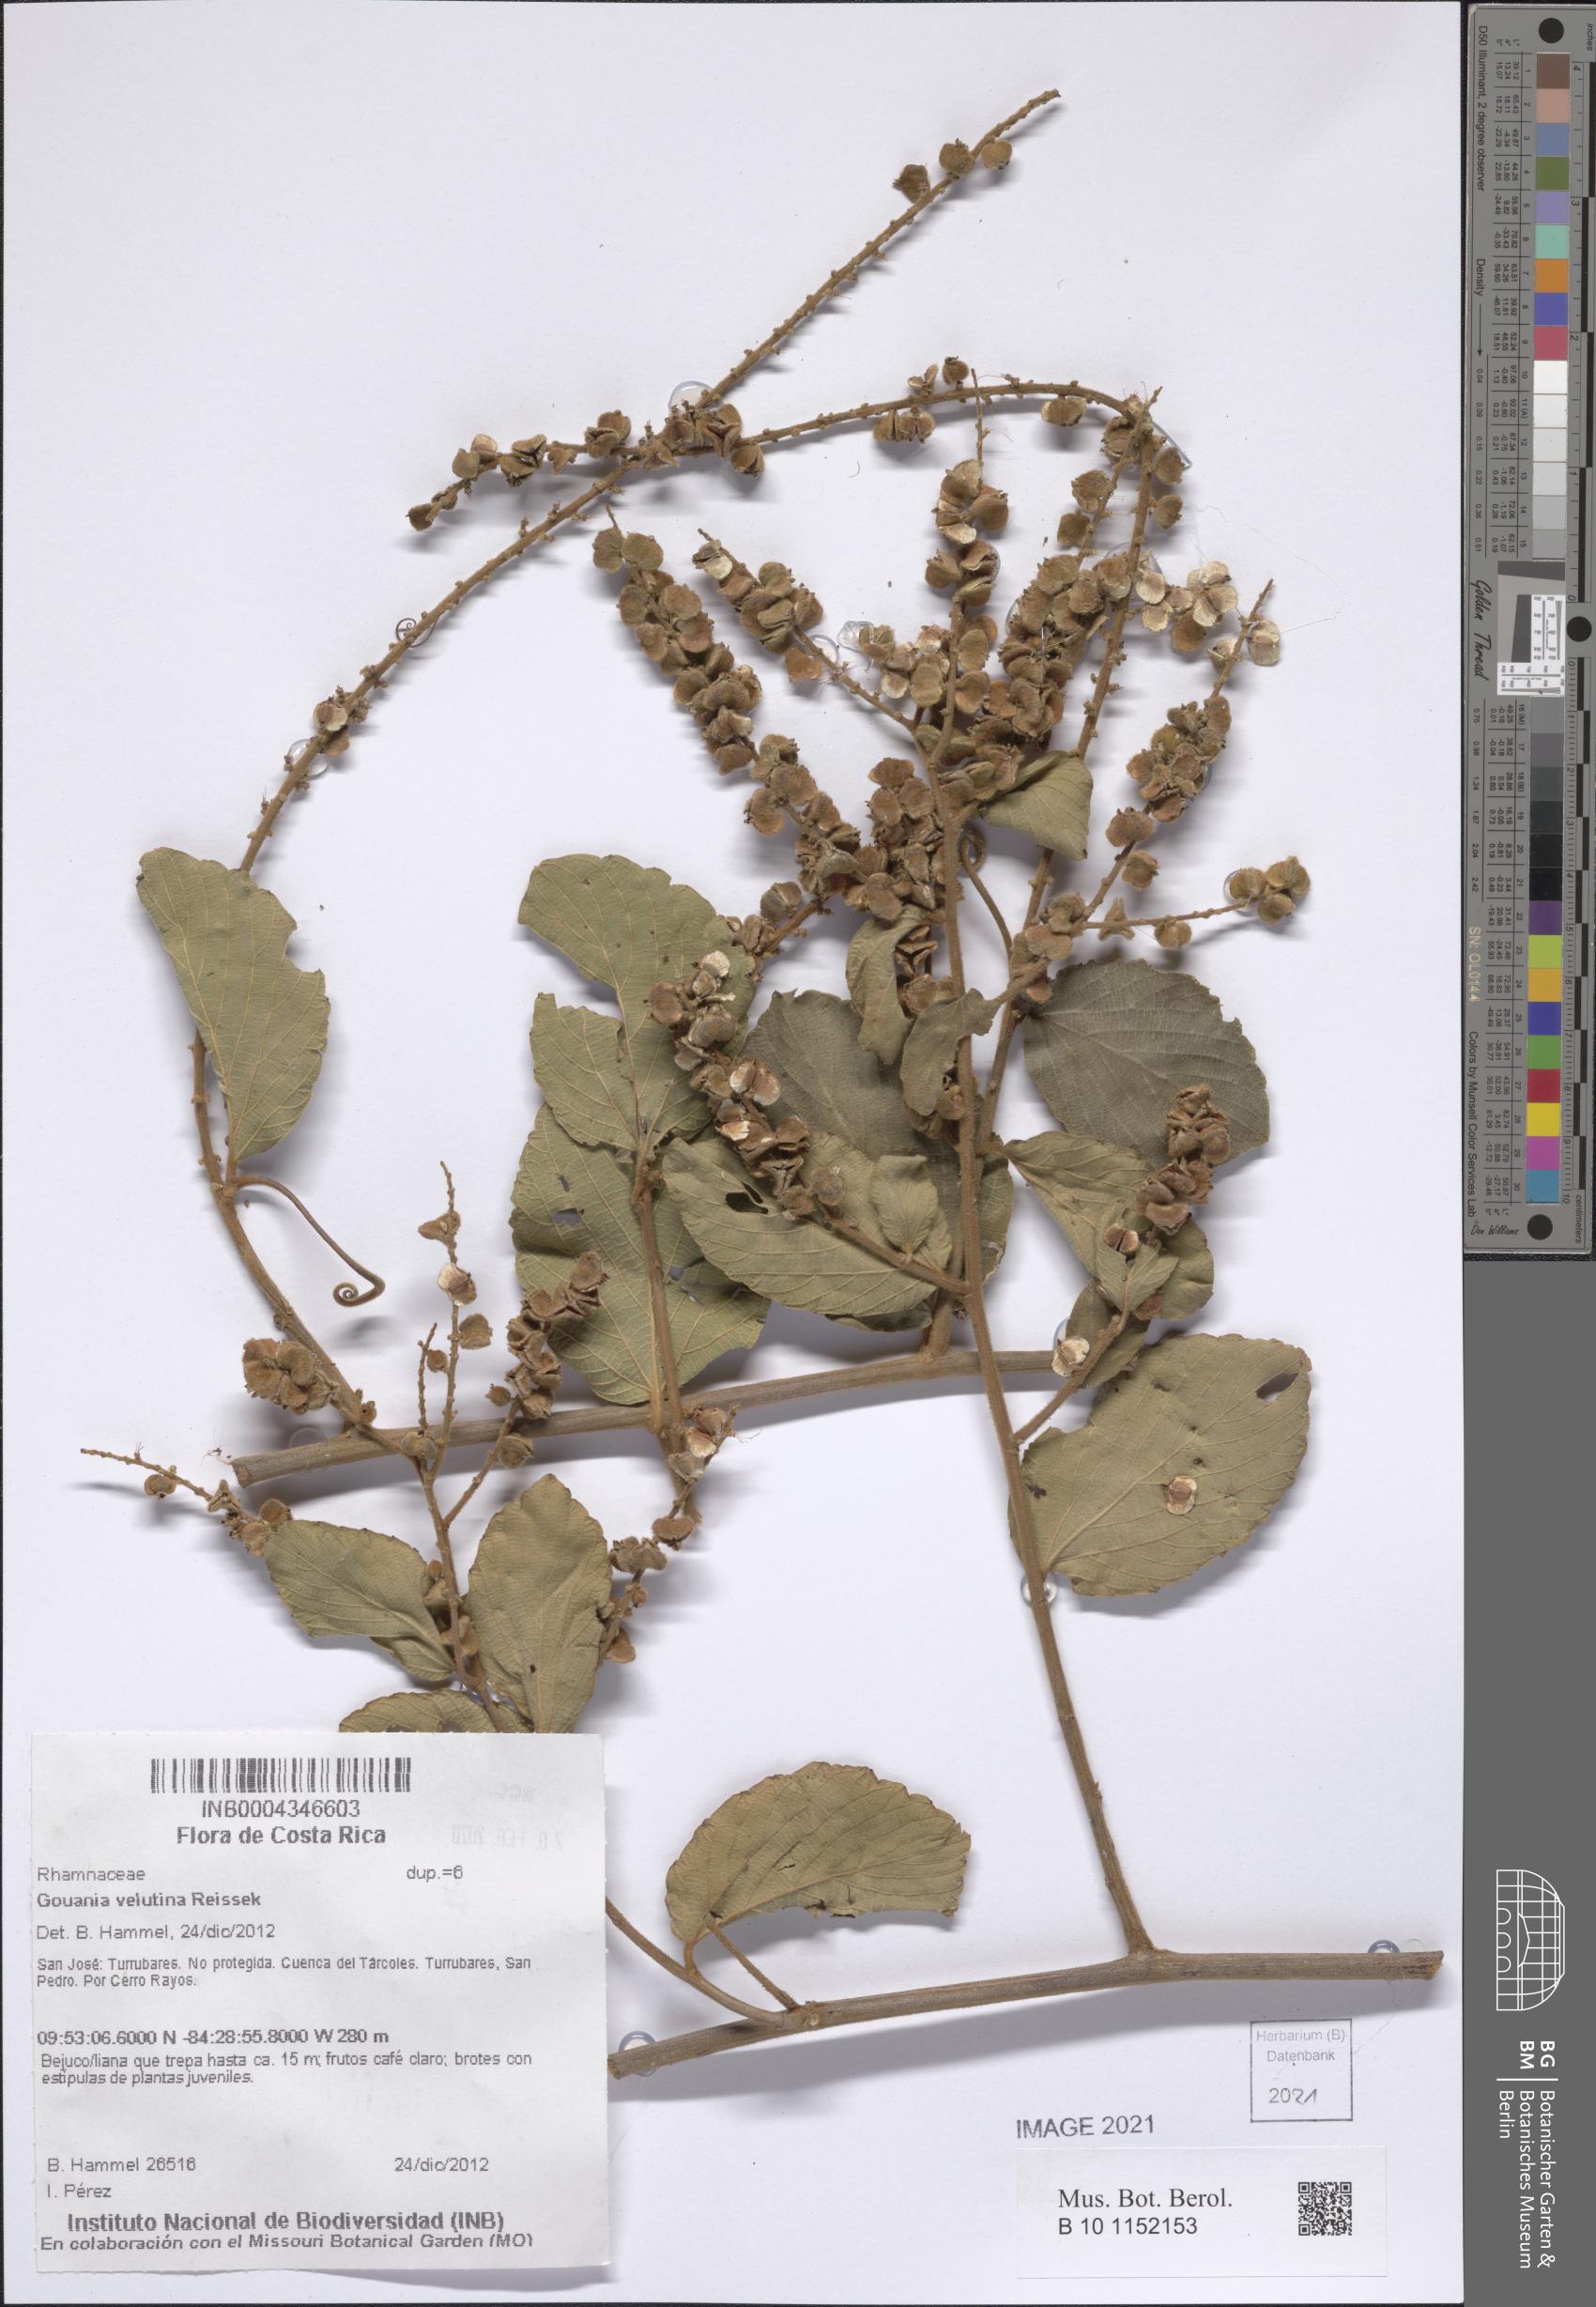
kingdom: Plantae
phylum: Tracheophyta
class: Magnoliopsida
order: Rosales
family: Rhamnaceae
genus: Gouania
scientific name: Gouania velutina
